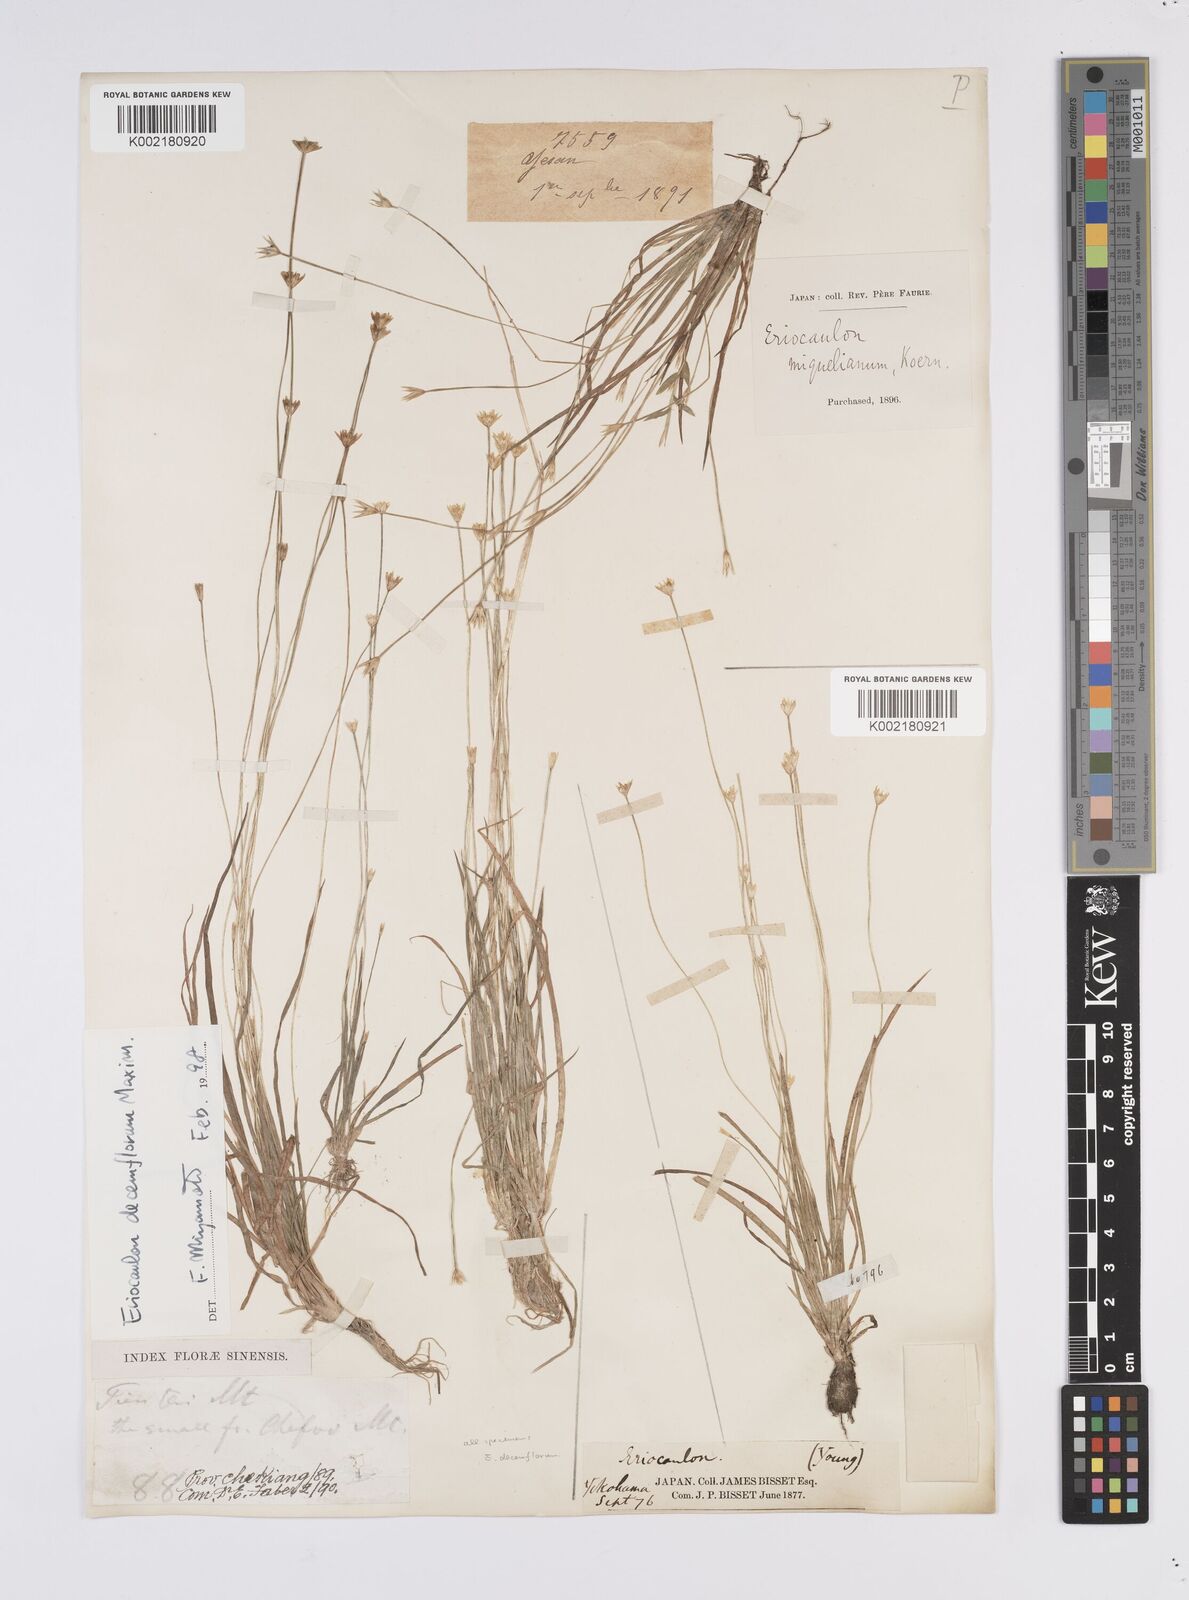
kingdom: Plantae
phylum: Tracheophyta
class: Liliopsida
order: Poales
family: Eriocaulaceae
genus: Eriocaulon
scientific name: Eriocaulon decemflorum
